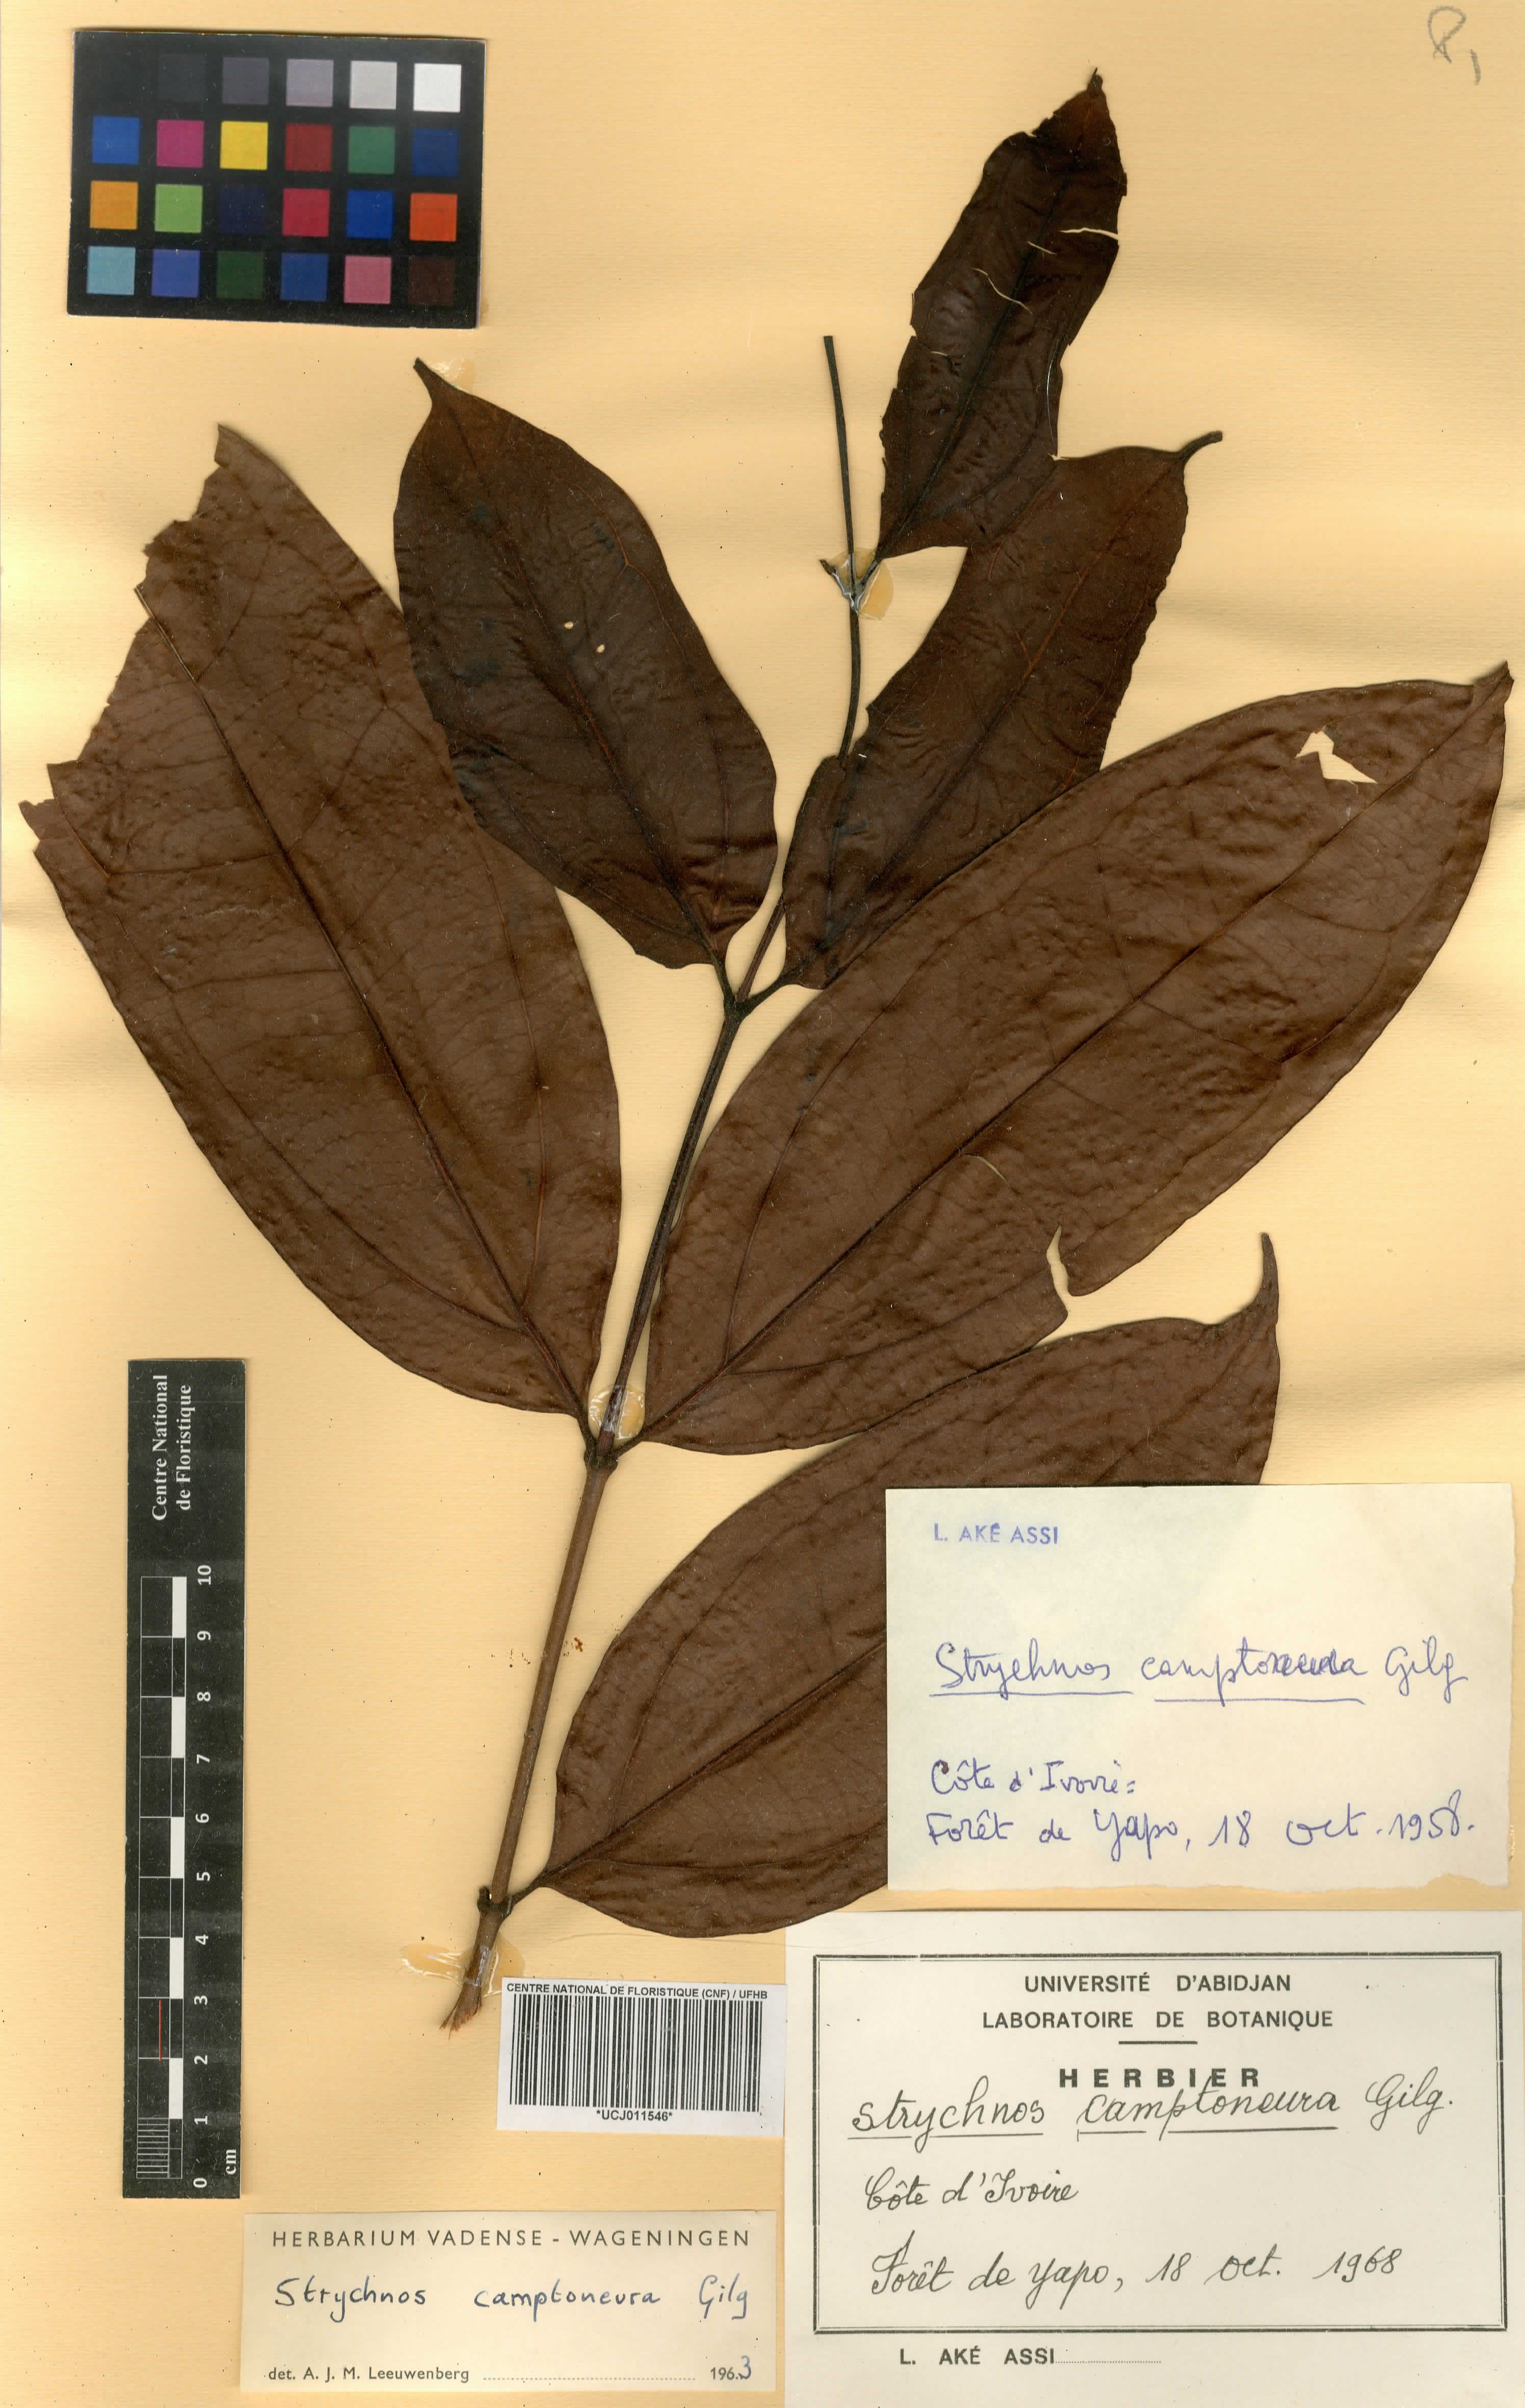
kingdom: Plantae
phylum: Tracheophyta
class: Magnoliopsida
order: Gentianales
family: Loganiaceae
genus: Strychnos
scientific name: Strychnos camptoneura
